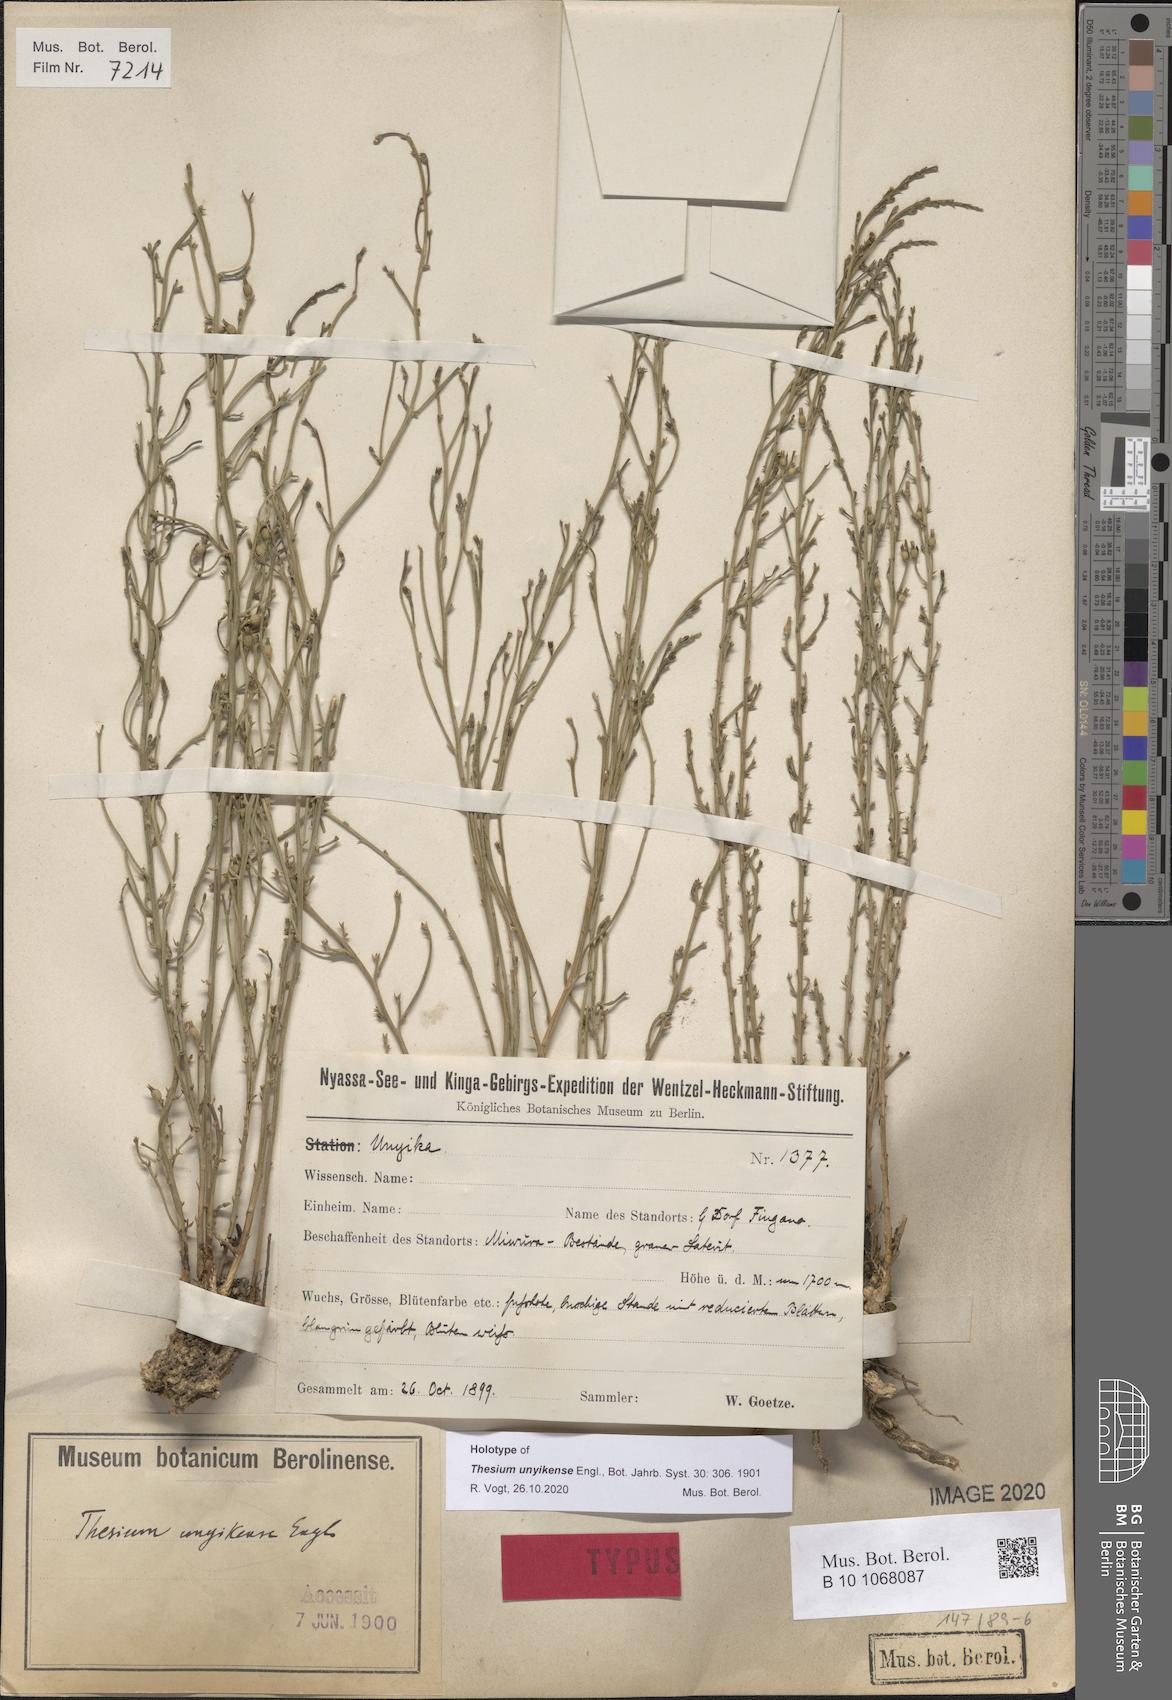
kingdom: Plantae
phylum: Tracheophyta
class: Magnoliopsida
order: Santalales
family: Thesiaceae
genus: Thesium
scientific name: Thesium unyikense
